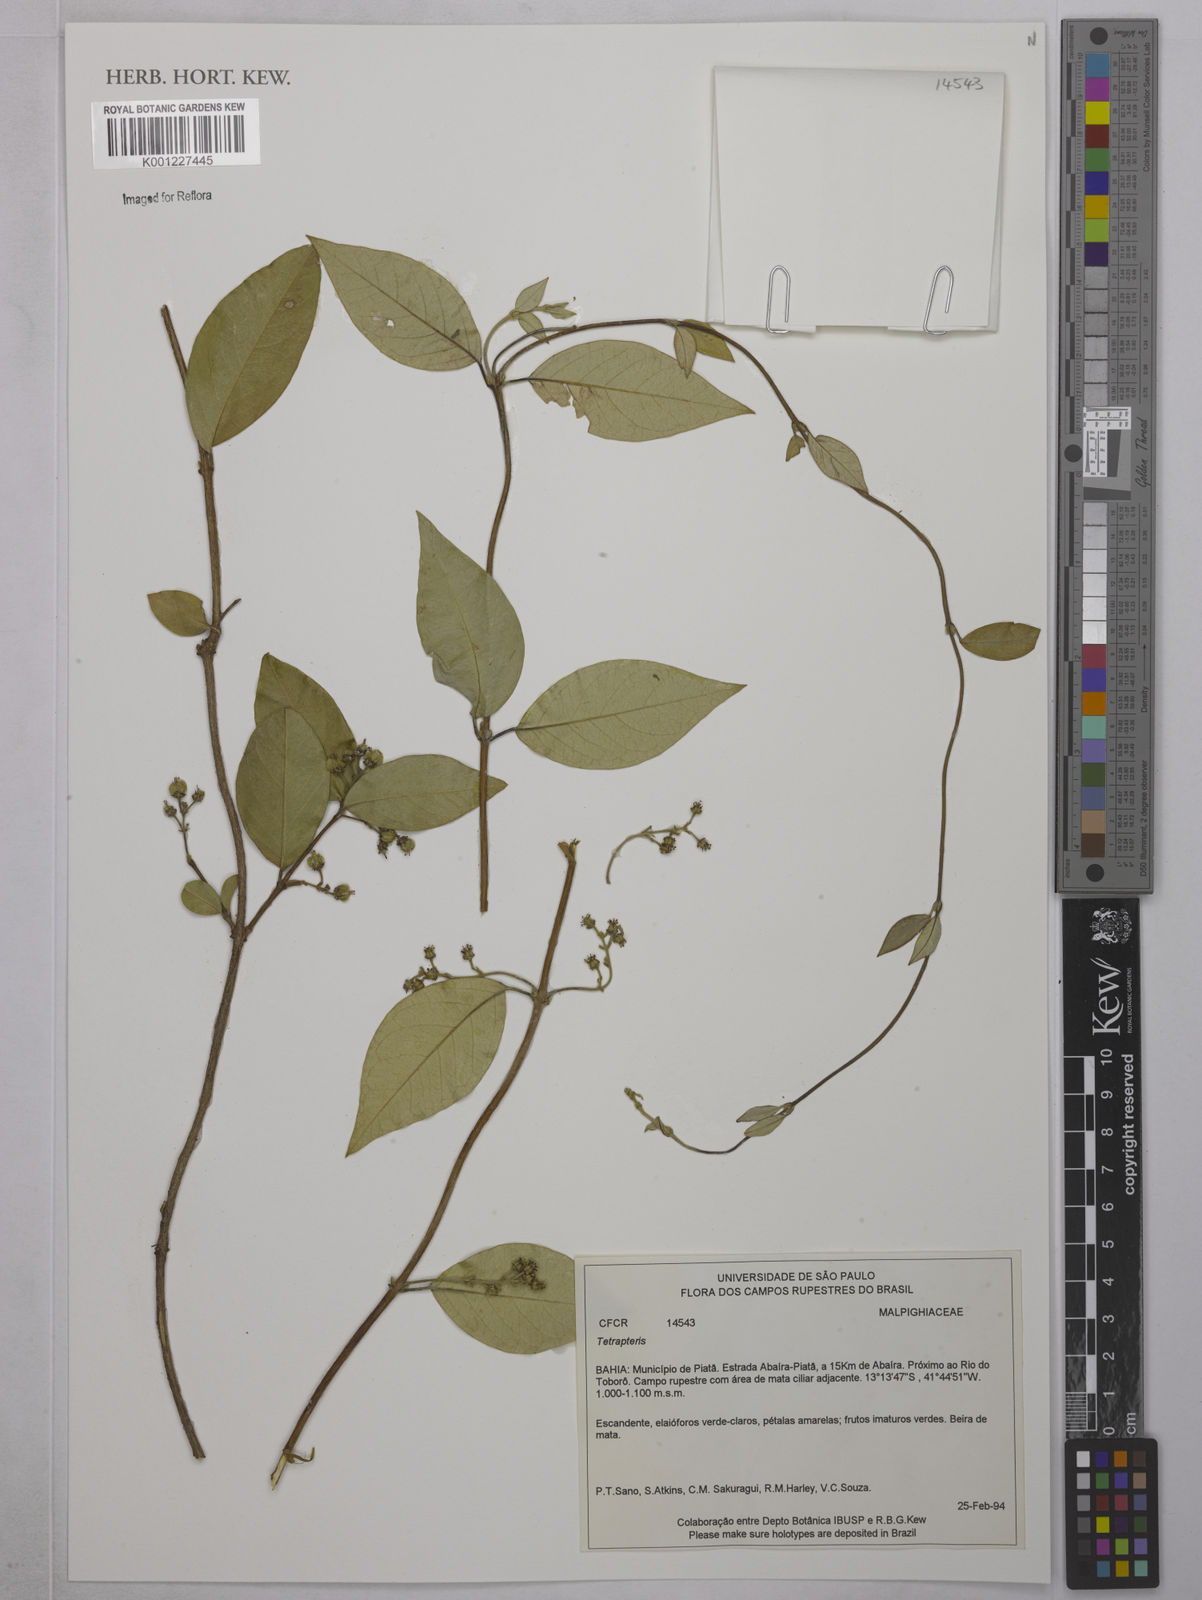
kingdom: Plantae
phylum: Tracheophyta
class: Magnoliopsida
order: Malpighiales
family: Malpighiaceae
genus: Tetrapterys
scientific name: Tetrapterys
